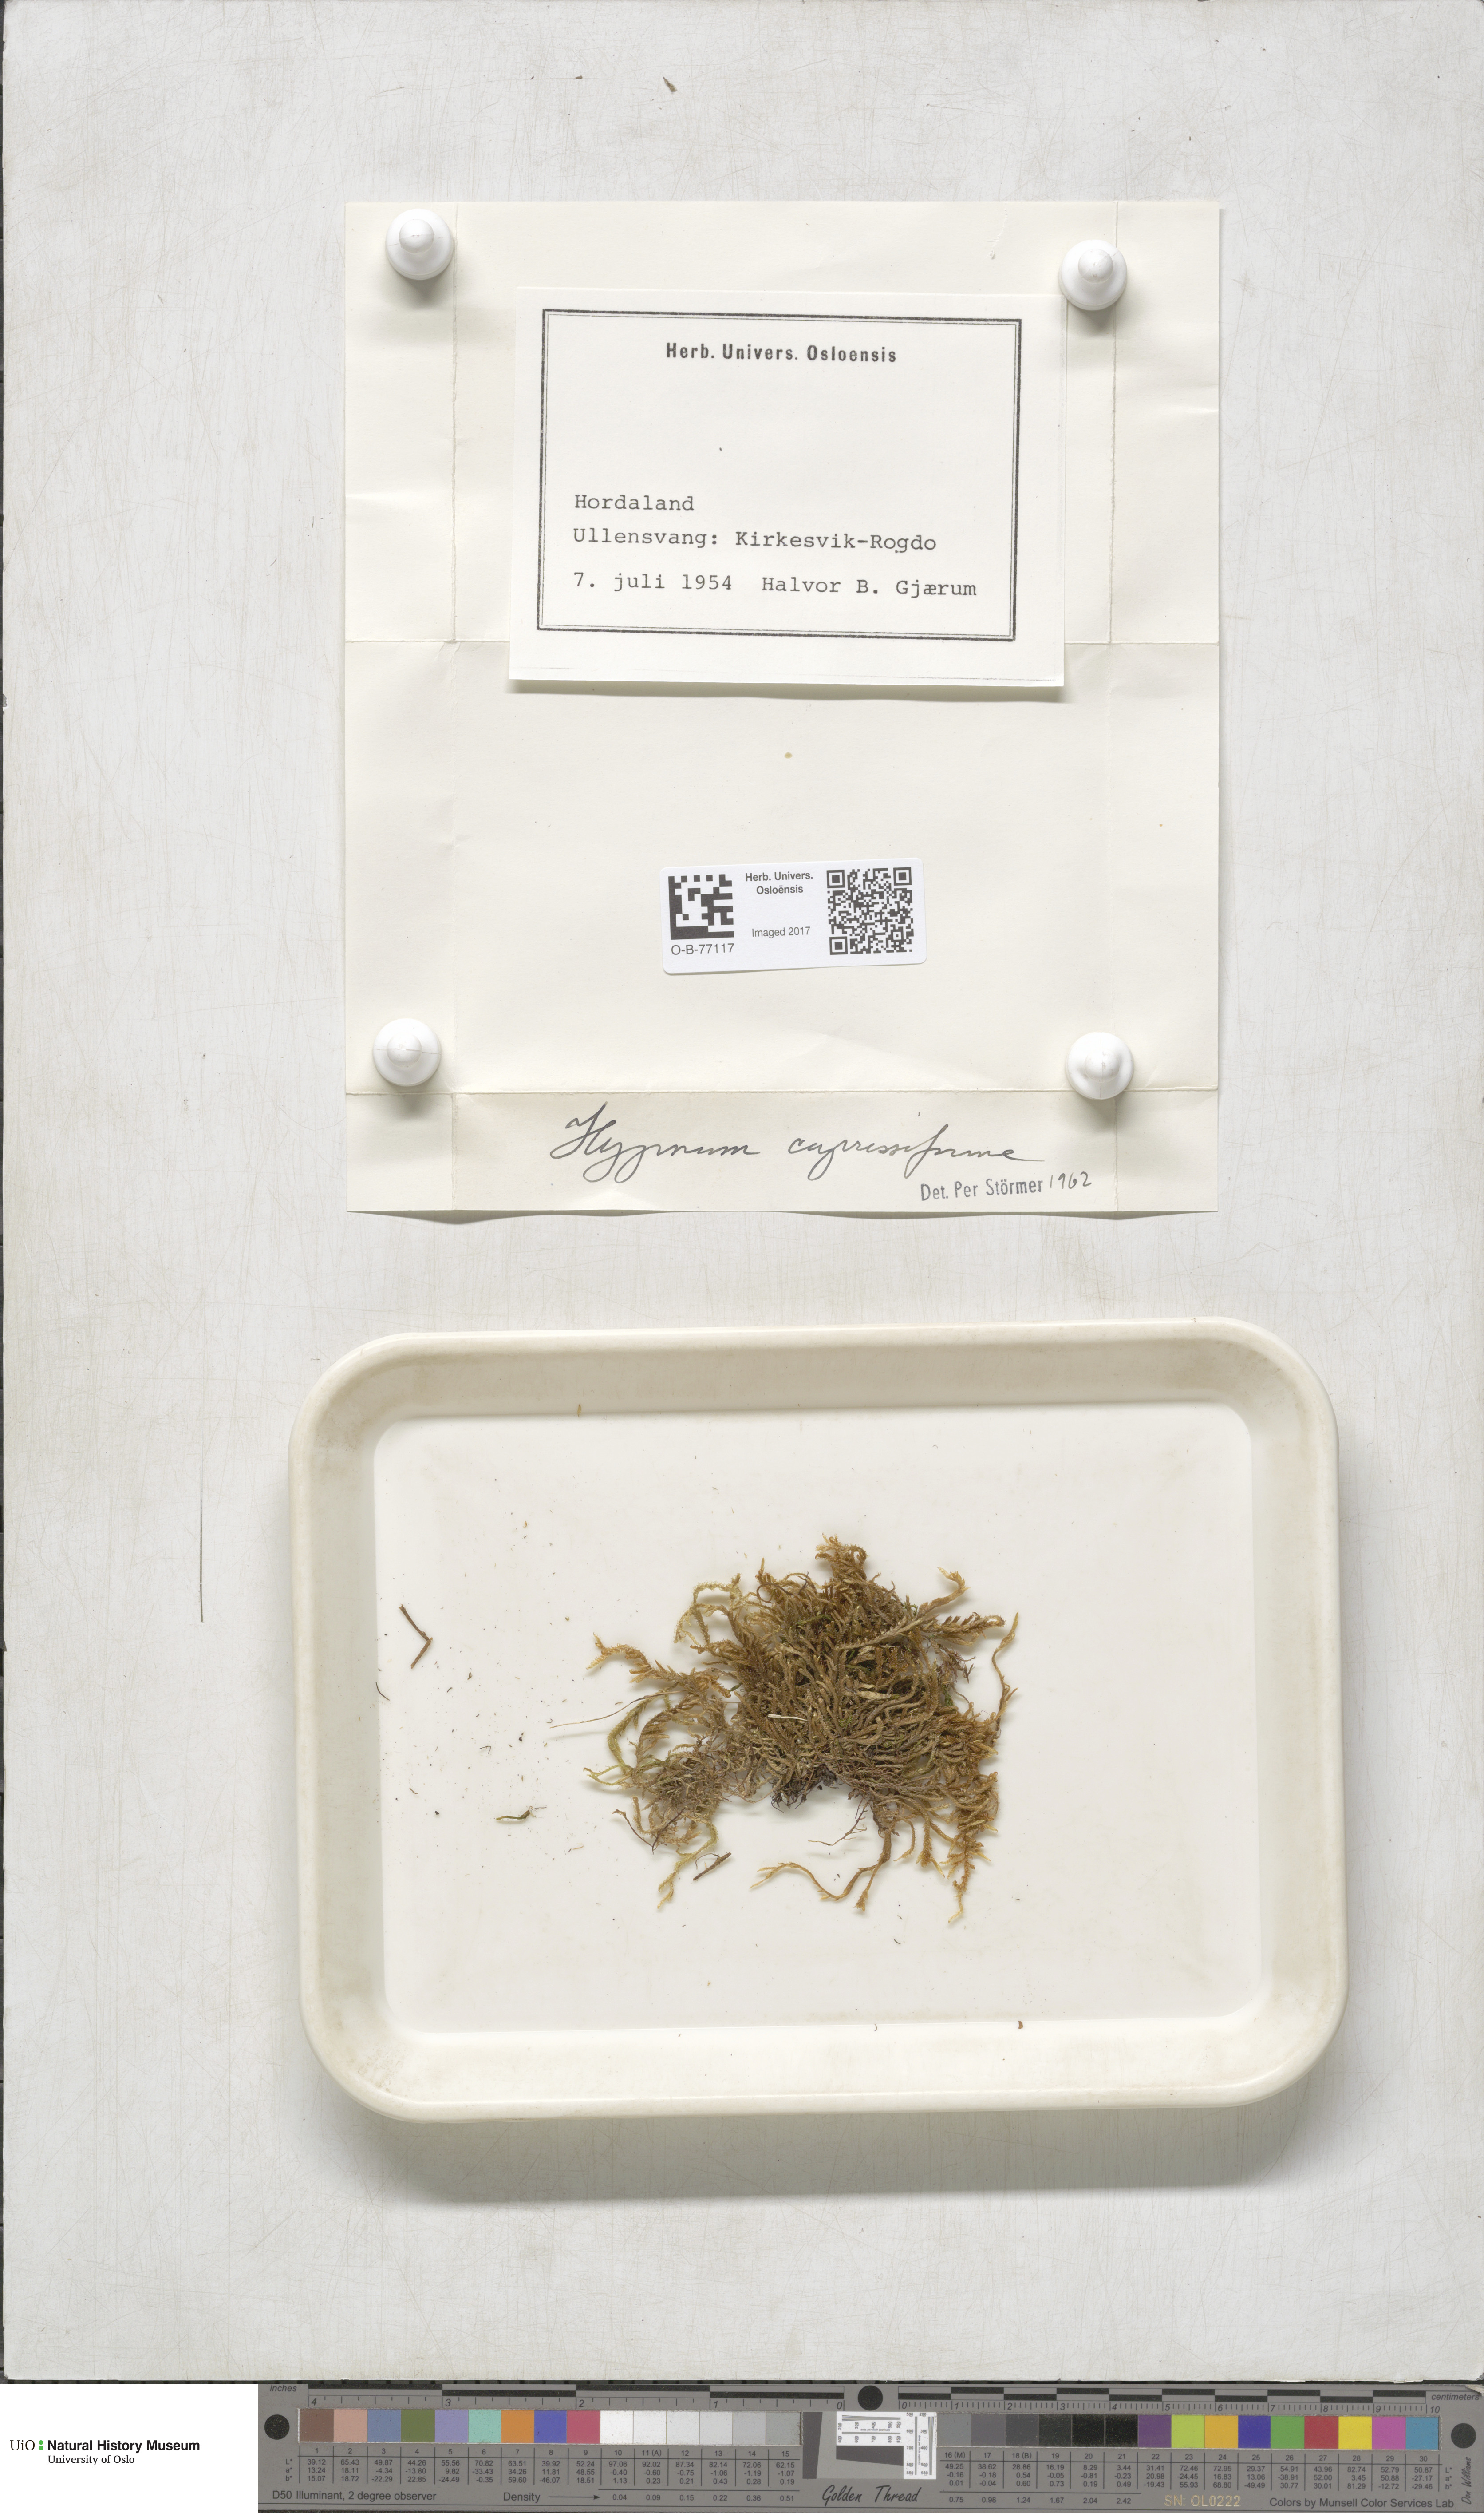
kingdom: Plantae
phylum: Bryophyta
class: Bryopsida
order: Hypnales
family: Hypnaceae
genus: Hypnum
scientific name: Hypnum cupressiforme
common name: Cypress-leaved plait-moss
